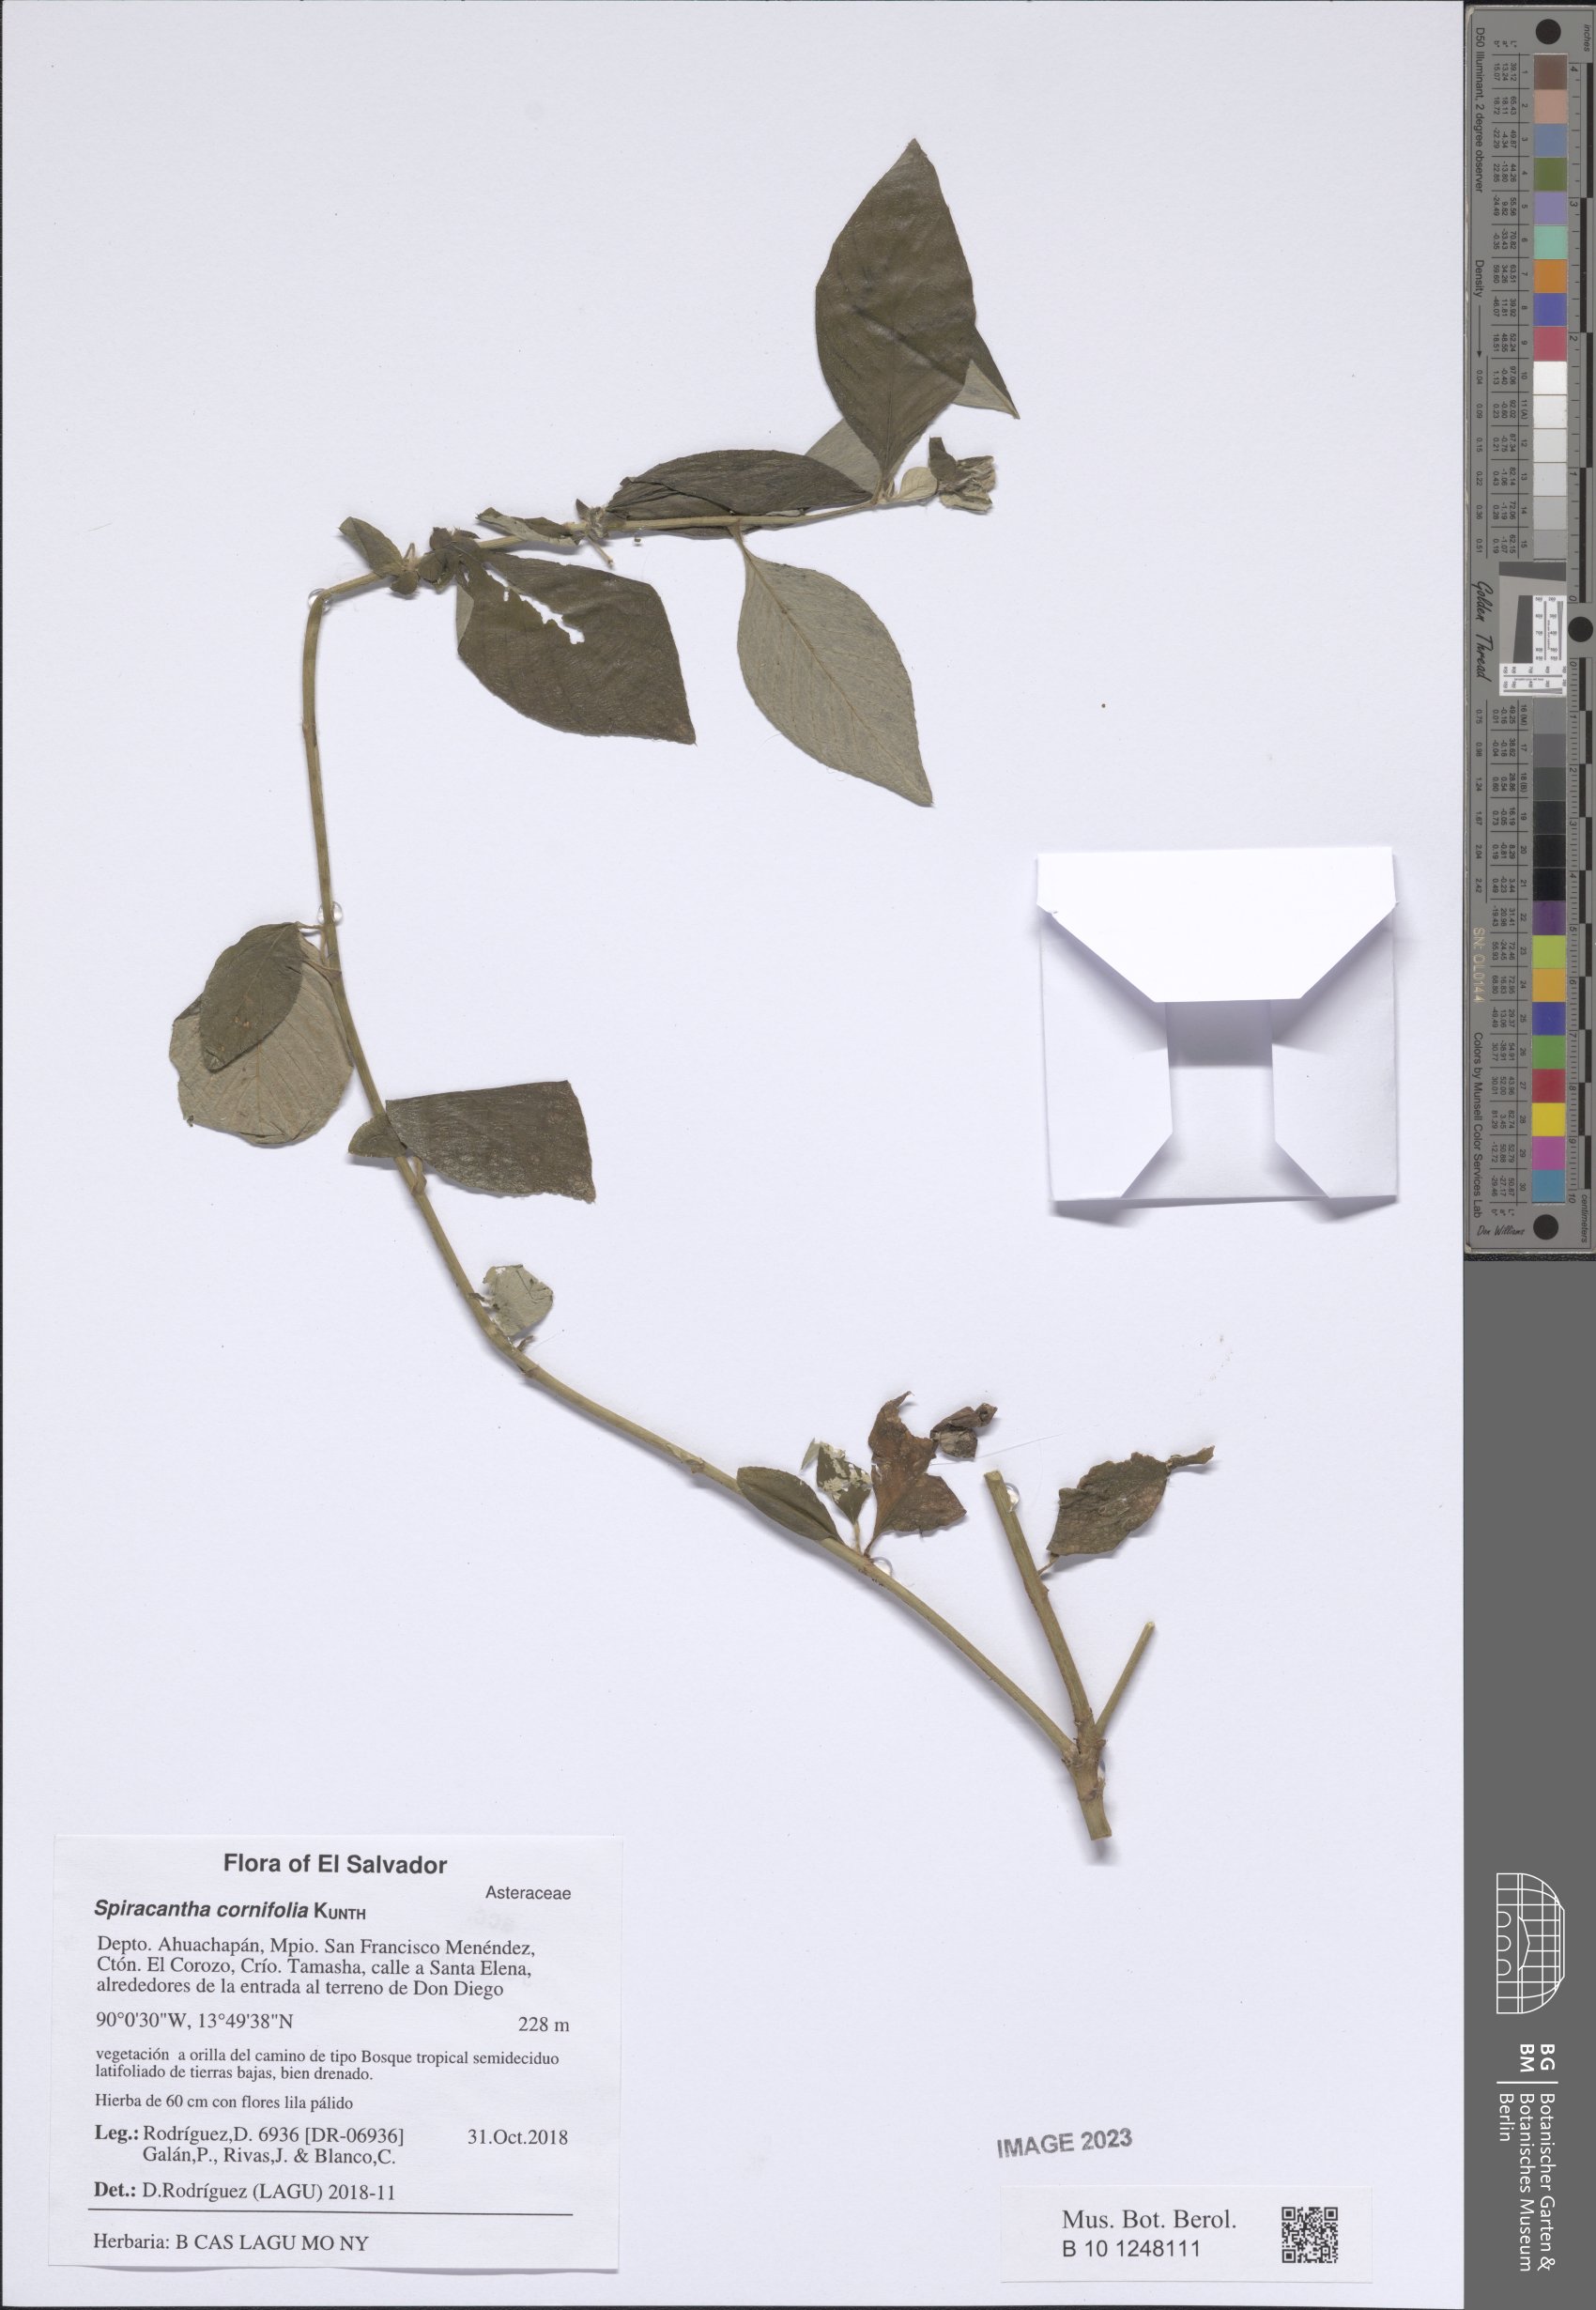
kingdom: Plantae
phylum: Tracheophyta
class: Magnoliopsida
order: Asterales
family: Asteraceae
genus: Spiracantha
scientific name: Spiracantha cornifolia
